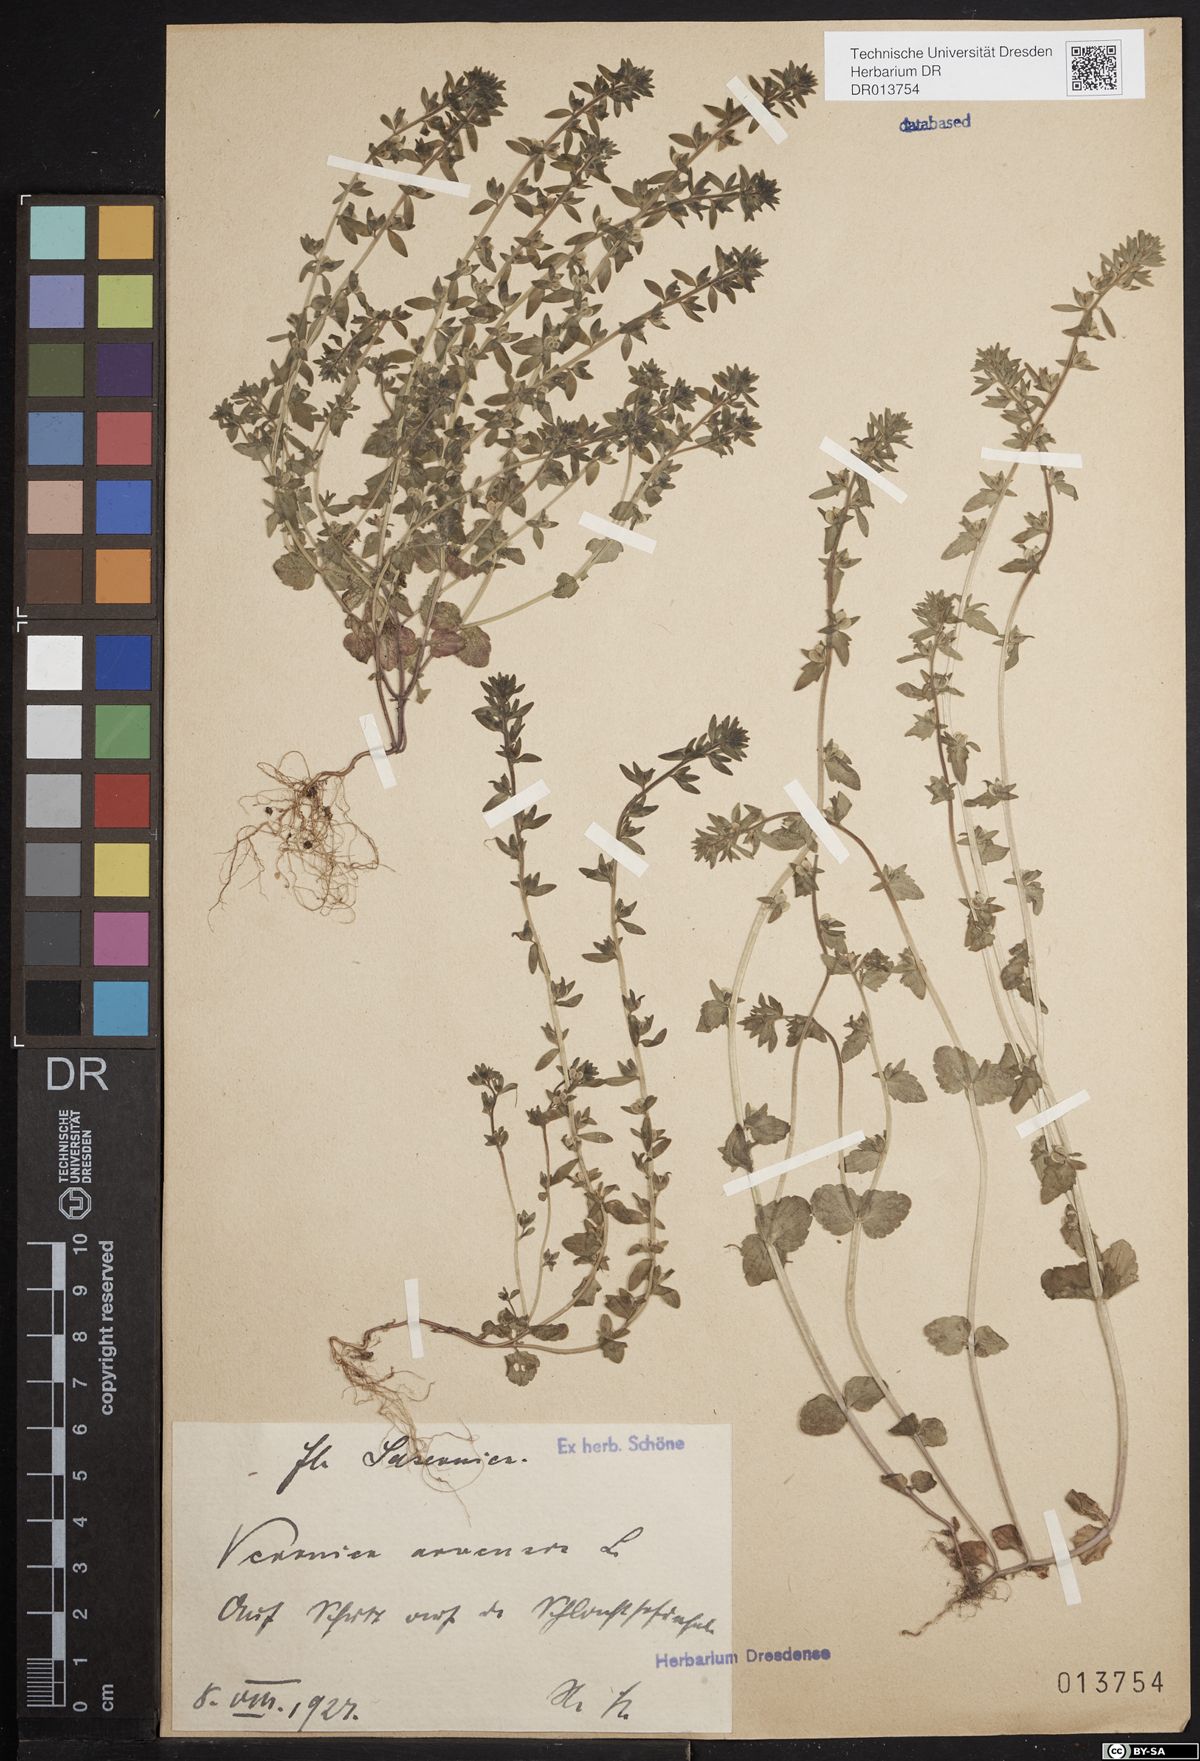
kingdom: Plantae
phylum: Tracheophyta
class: Magnoliopsida
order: Lamiales
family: Plantaginaceae
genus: Veronica
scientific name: Veronica arvensis
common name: Corn speedwell
